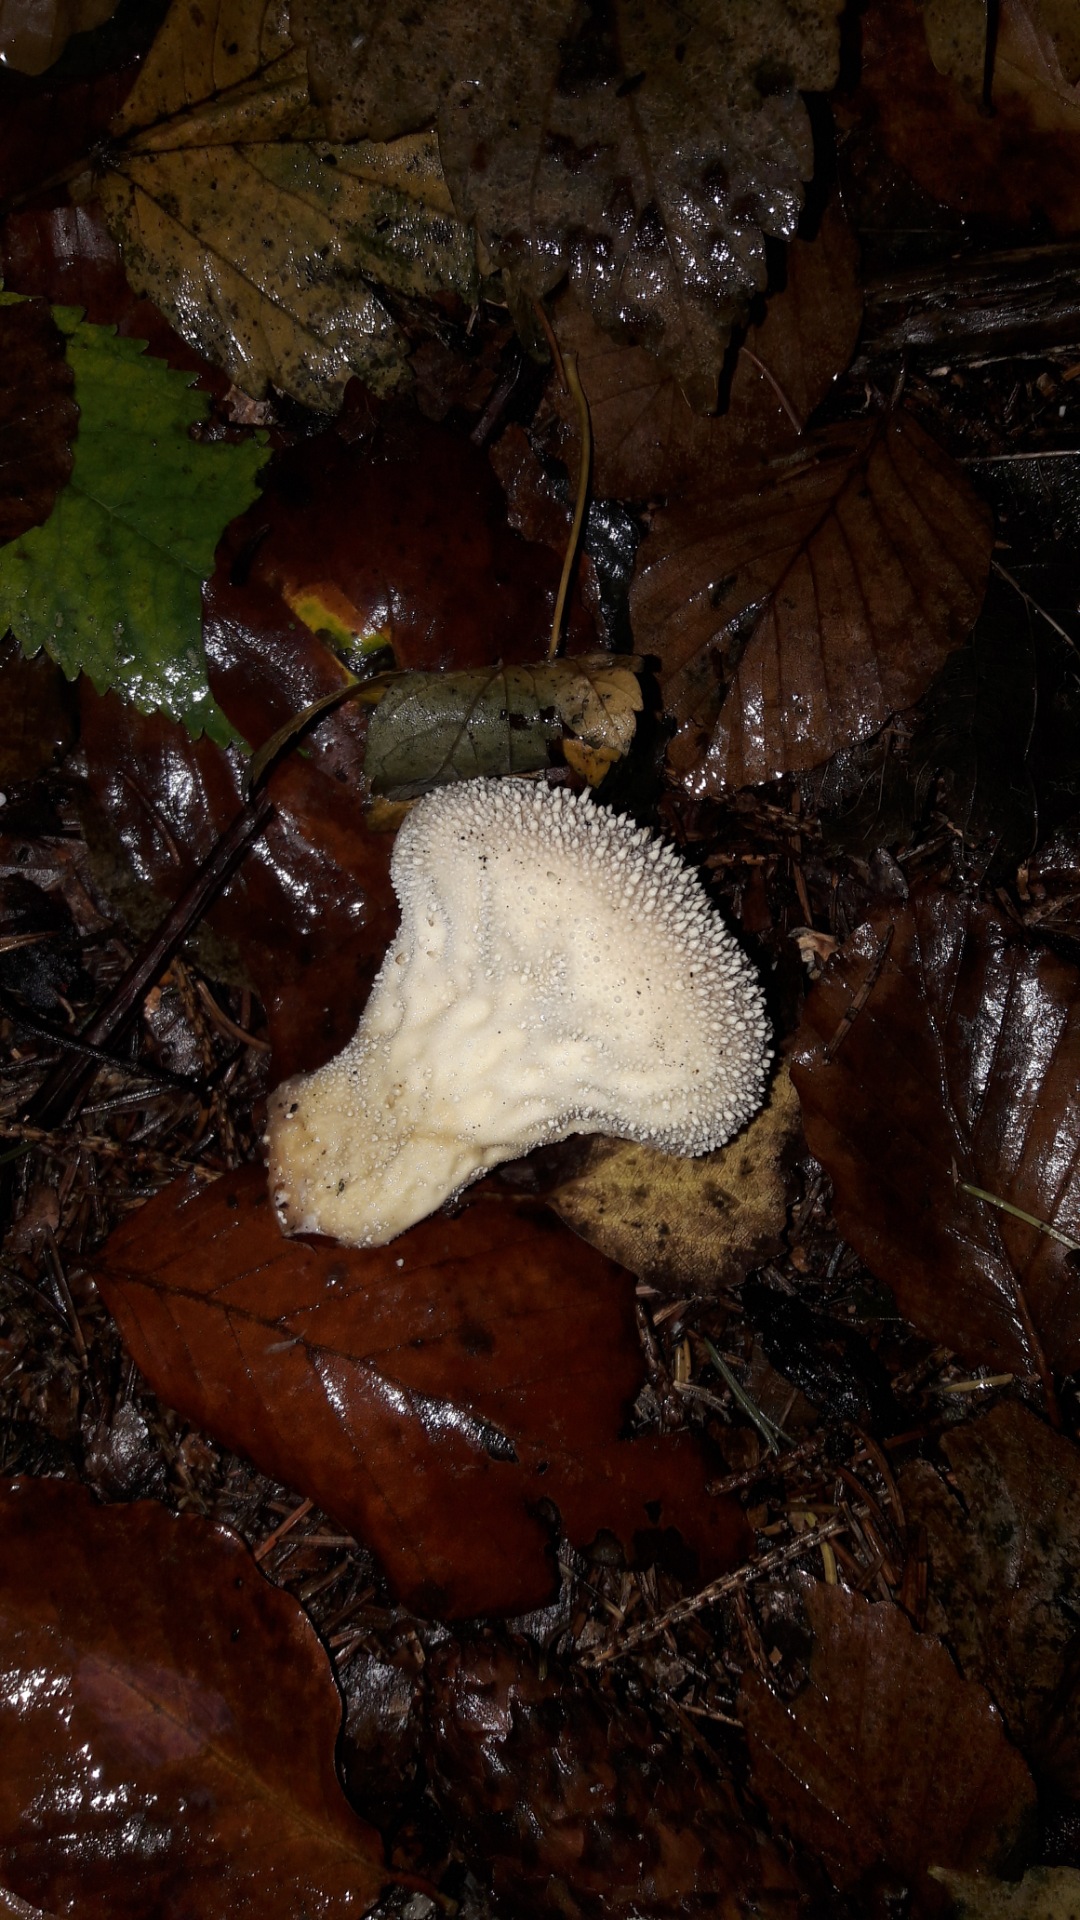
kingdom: Fungi
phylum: Basidiomycota
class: Agaricomycetes
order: Agaricales
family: Lycoperdaceae
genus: Lycoperdon
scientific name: Lycoperdon perlatum
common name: krystal-støvbold
